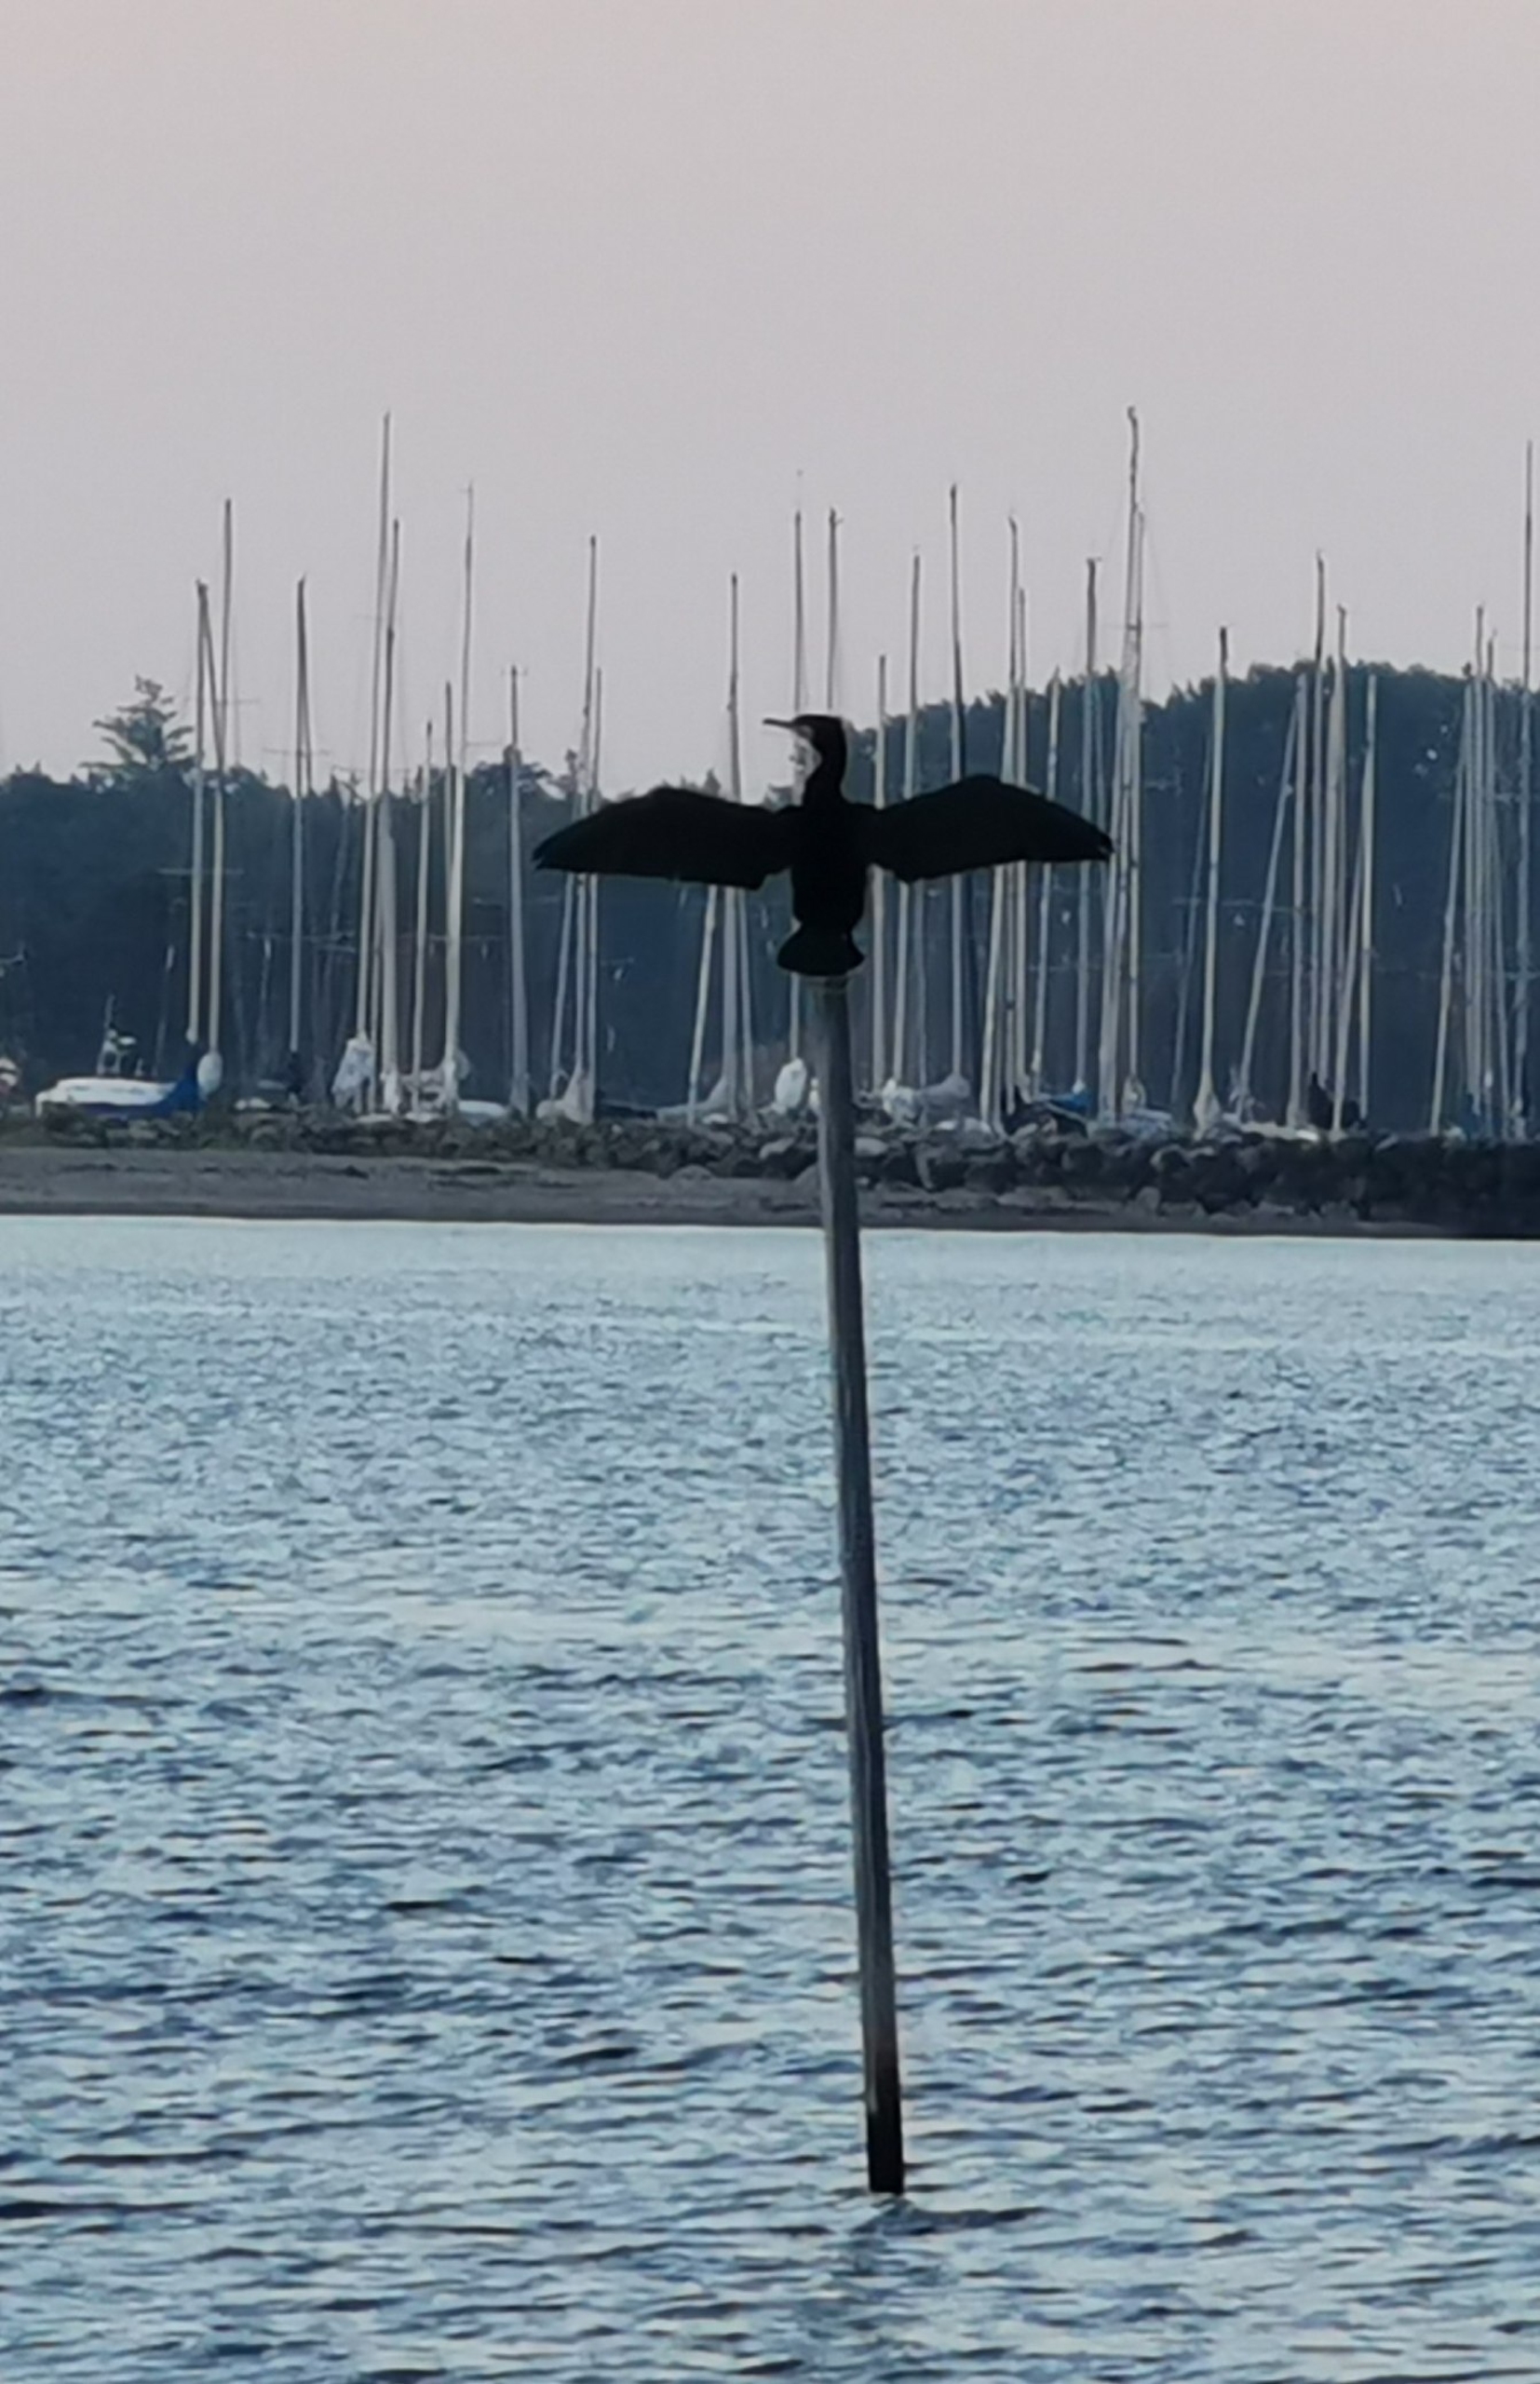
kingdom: Animalia
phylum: Chordata
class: Aves
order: Suliformes
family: Phalacrocoracidae
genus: Phalacrocorax
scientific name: Phalacrocorax carbo
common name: Skarv
